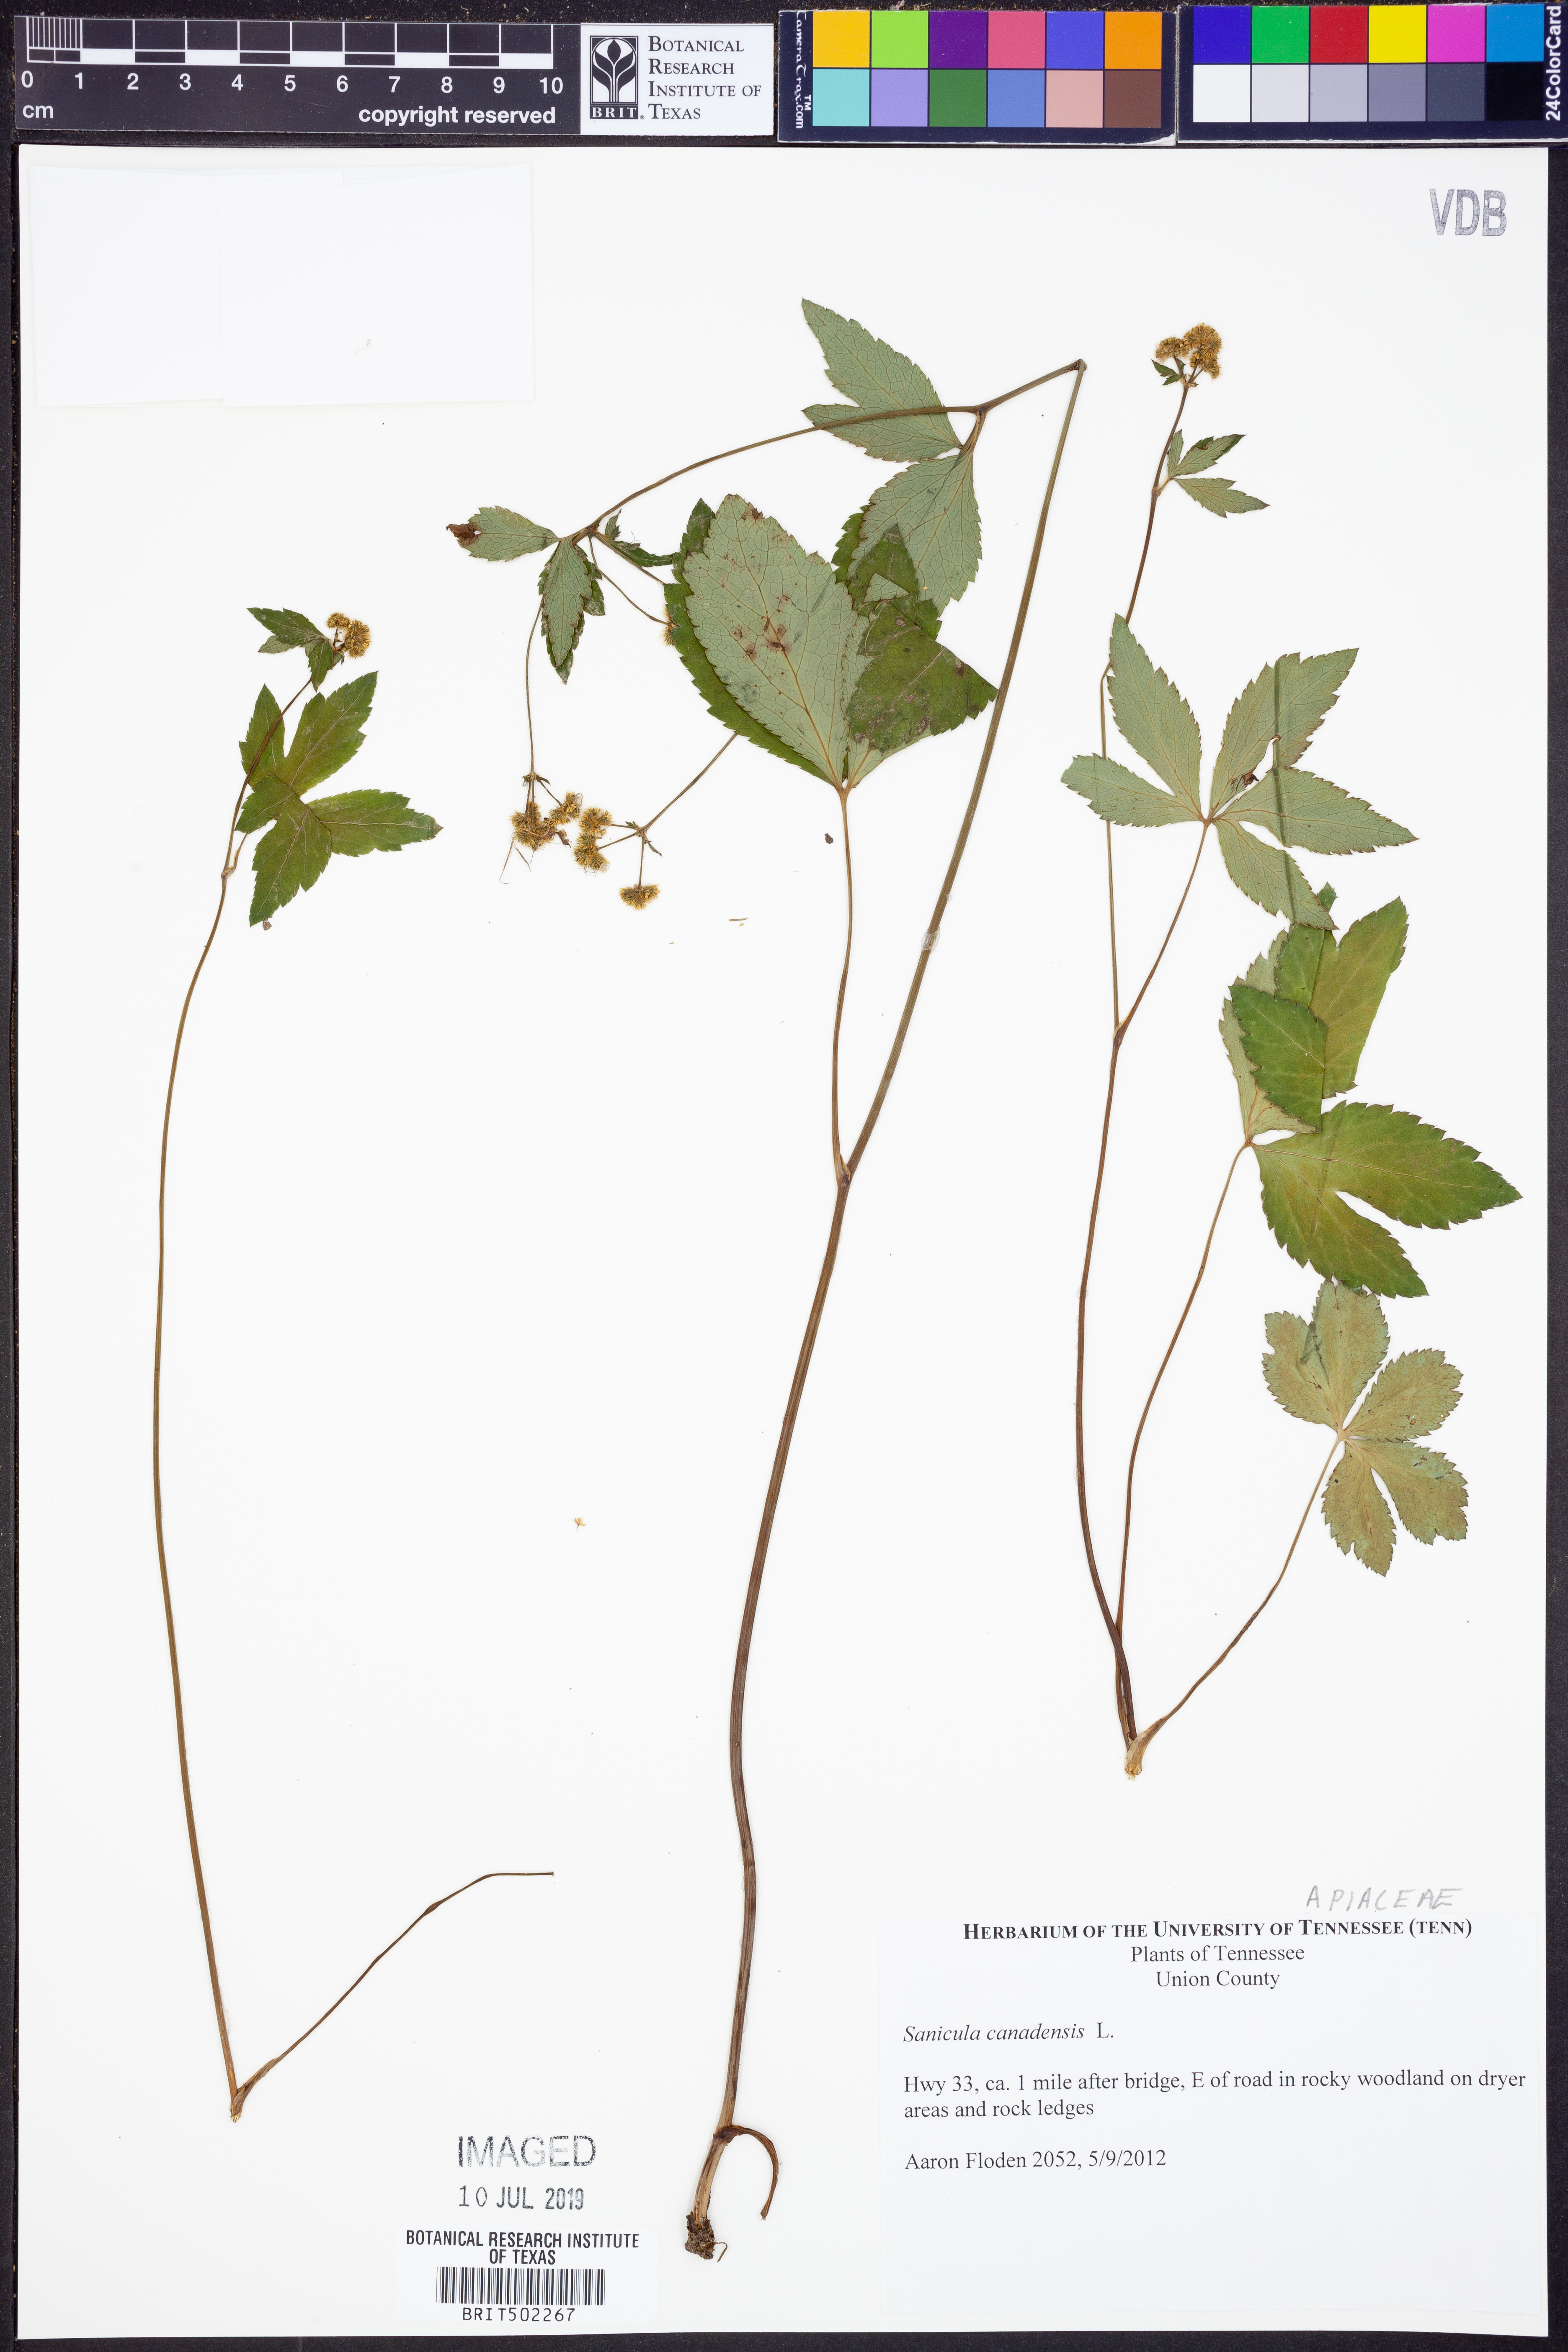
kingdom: Plantae
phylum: Tracheophyta
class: Magnoliopsida
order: Apiales
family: Apiaceae
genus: Sanicula
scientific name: Sanicula canadensis
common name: Canada sanicle
